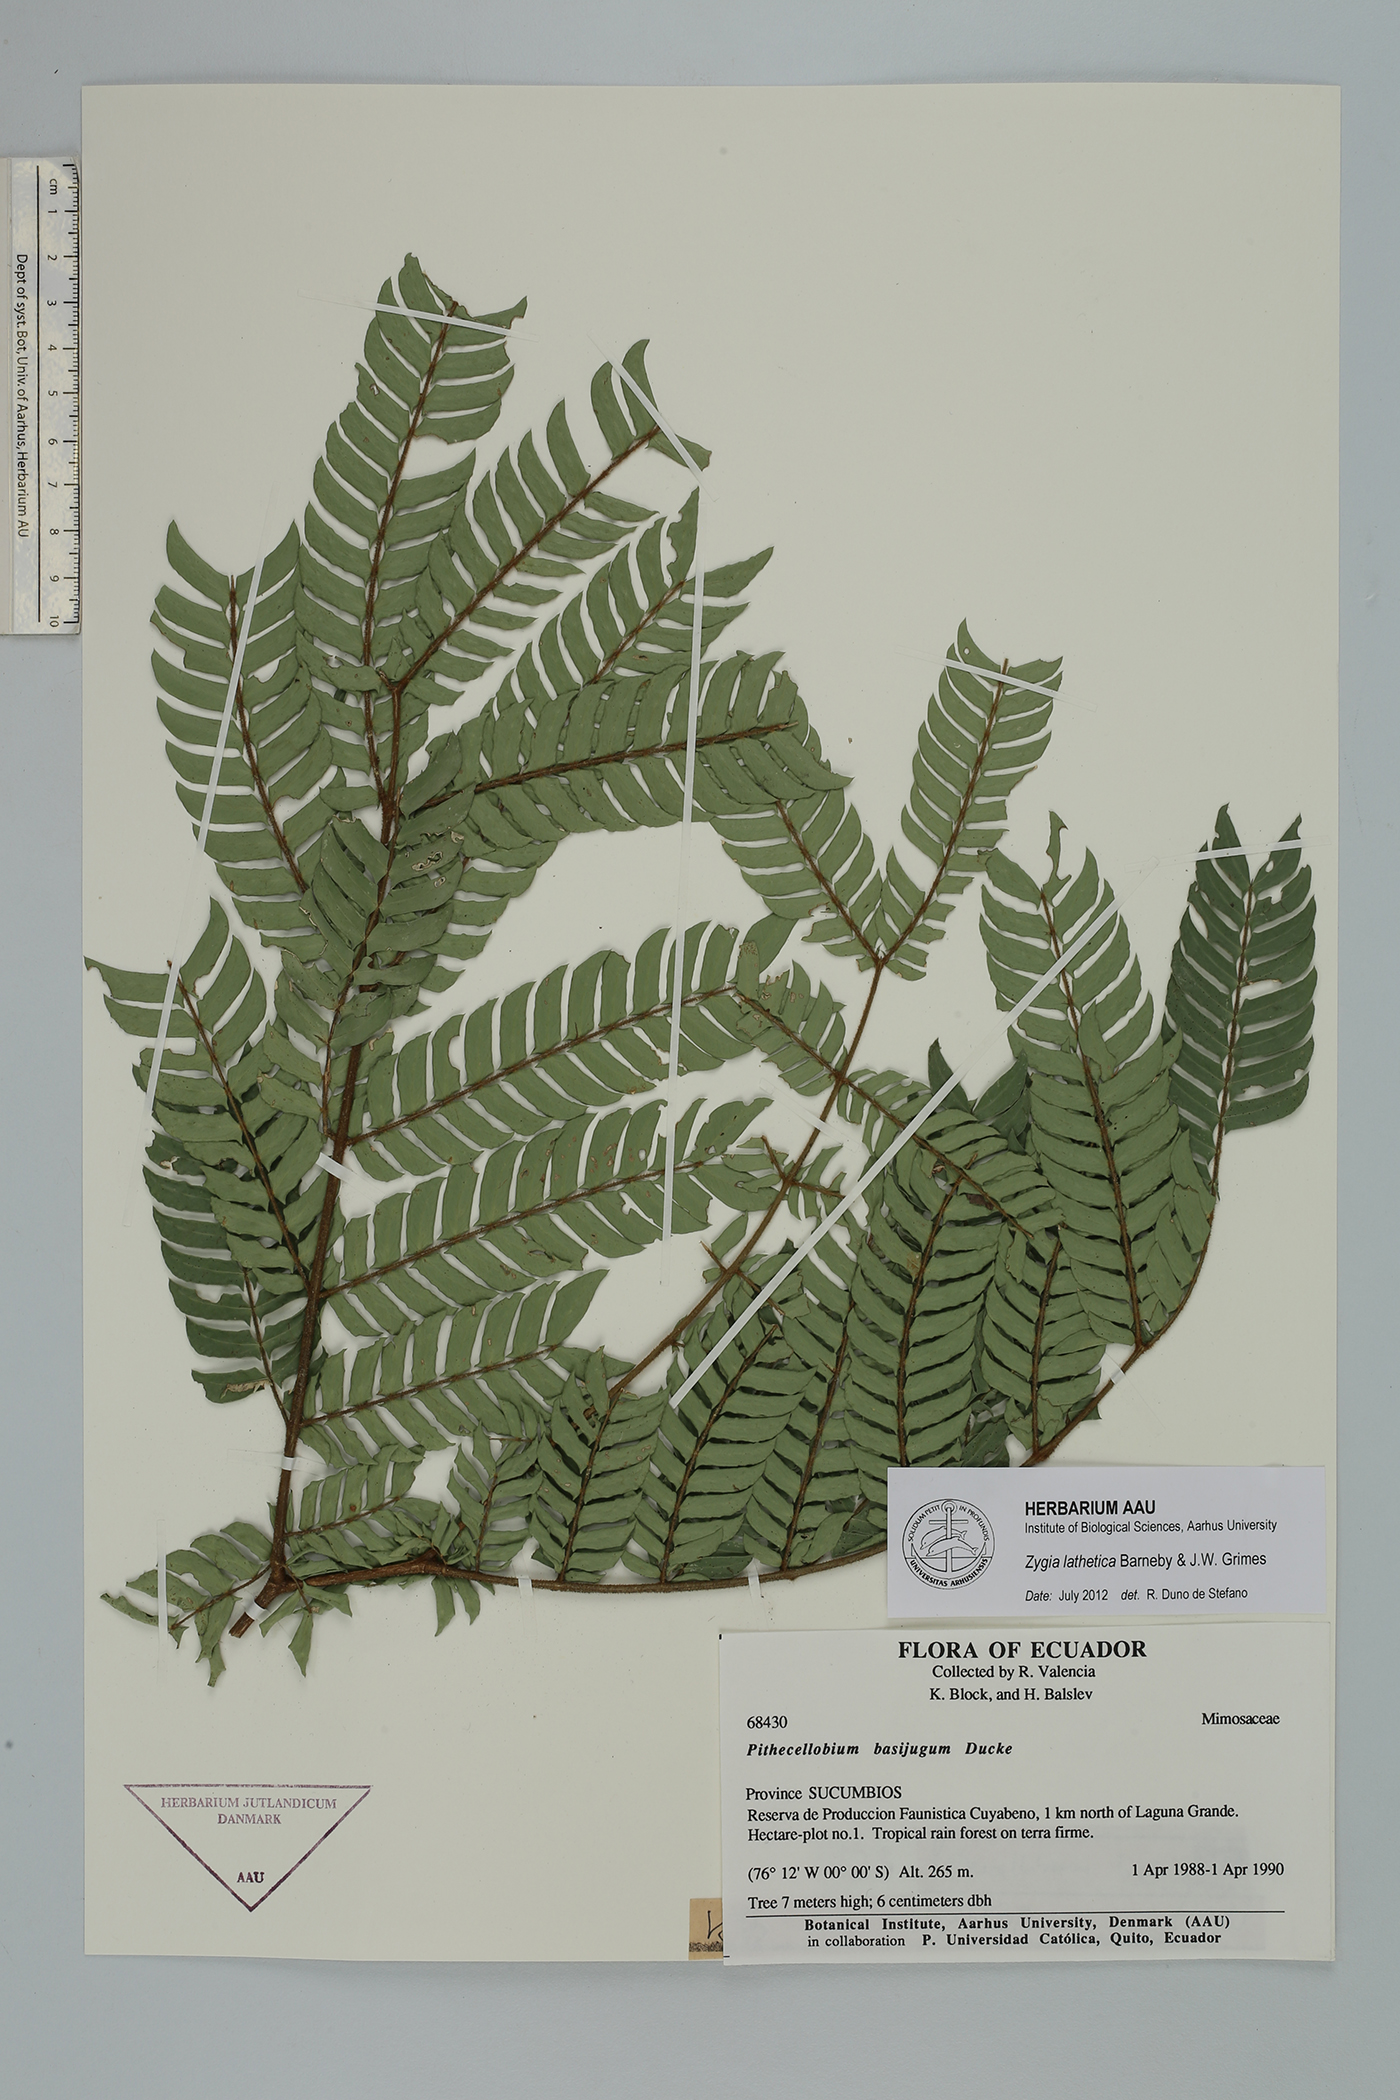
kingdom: Plantae
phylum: Tracheophyta
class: Magnoliopsida
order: Fabales
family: Fabaceae
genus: Zygia
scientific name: Zygia lathetica
